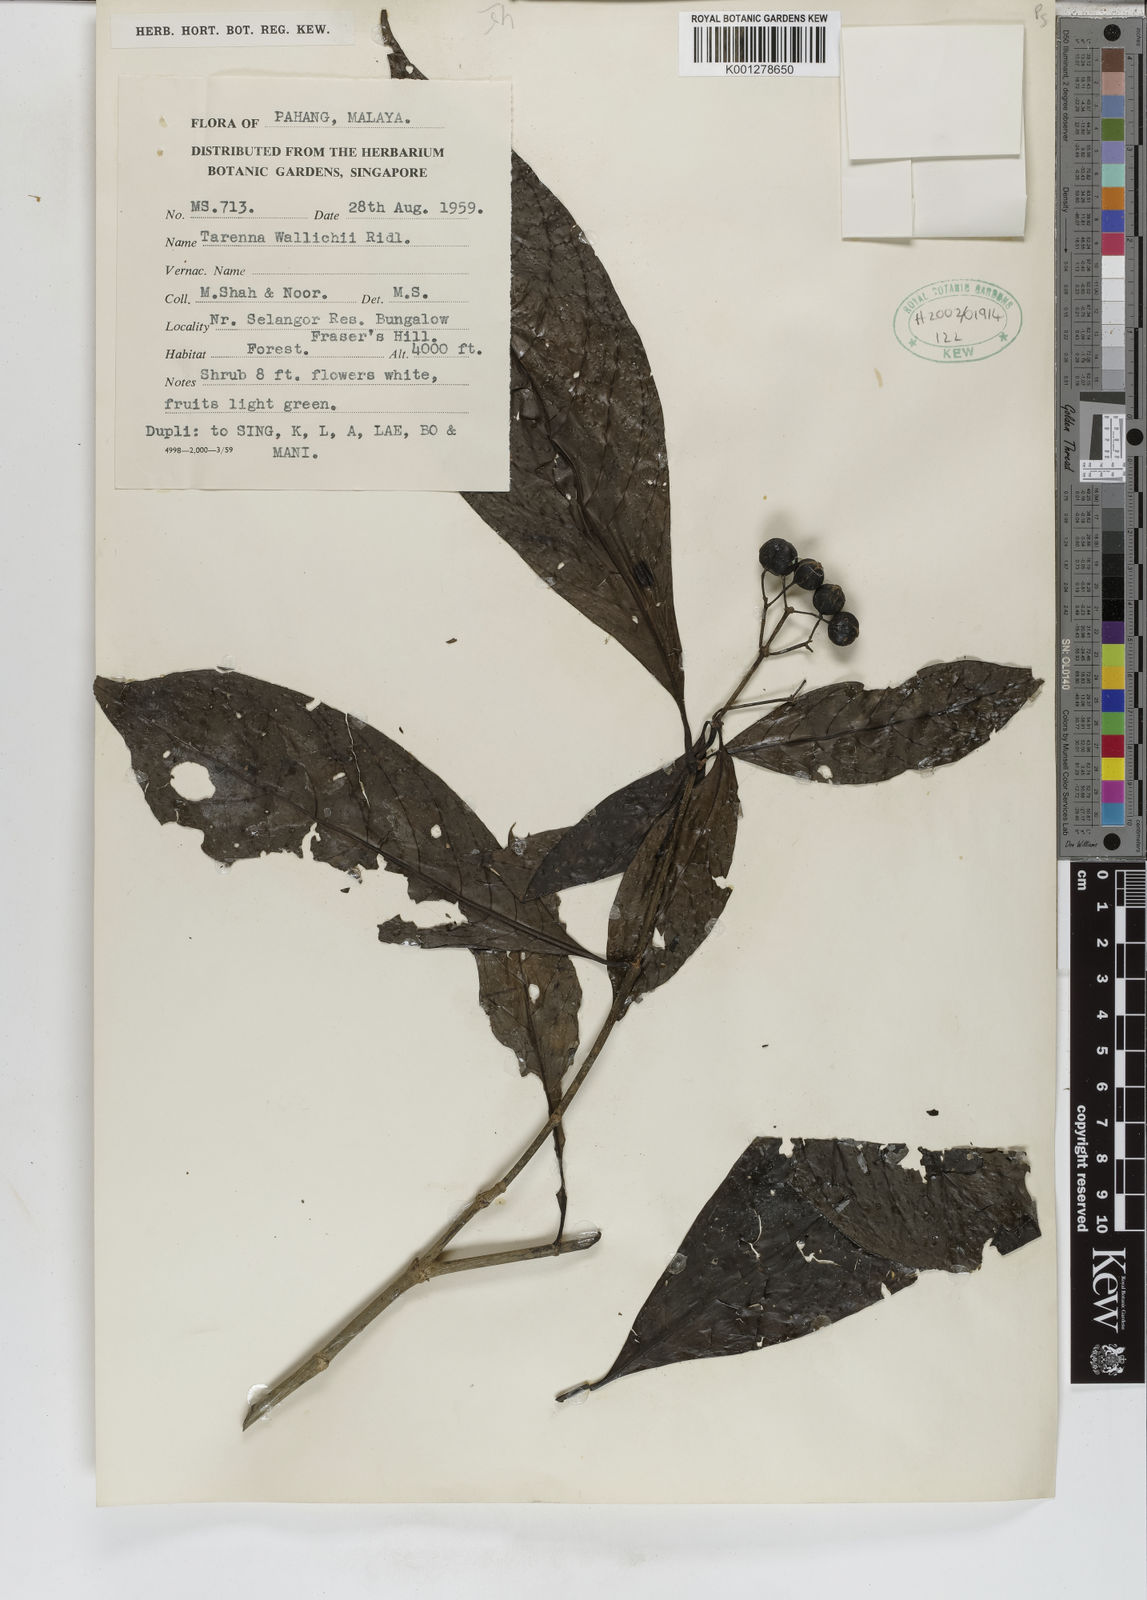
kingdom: Plantae
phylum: Tracheophyta
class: Magnoliopsida
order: Gentianales
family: Rubiaceae
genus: Tarenna
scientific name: Tarenna wallichii
